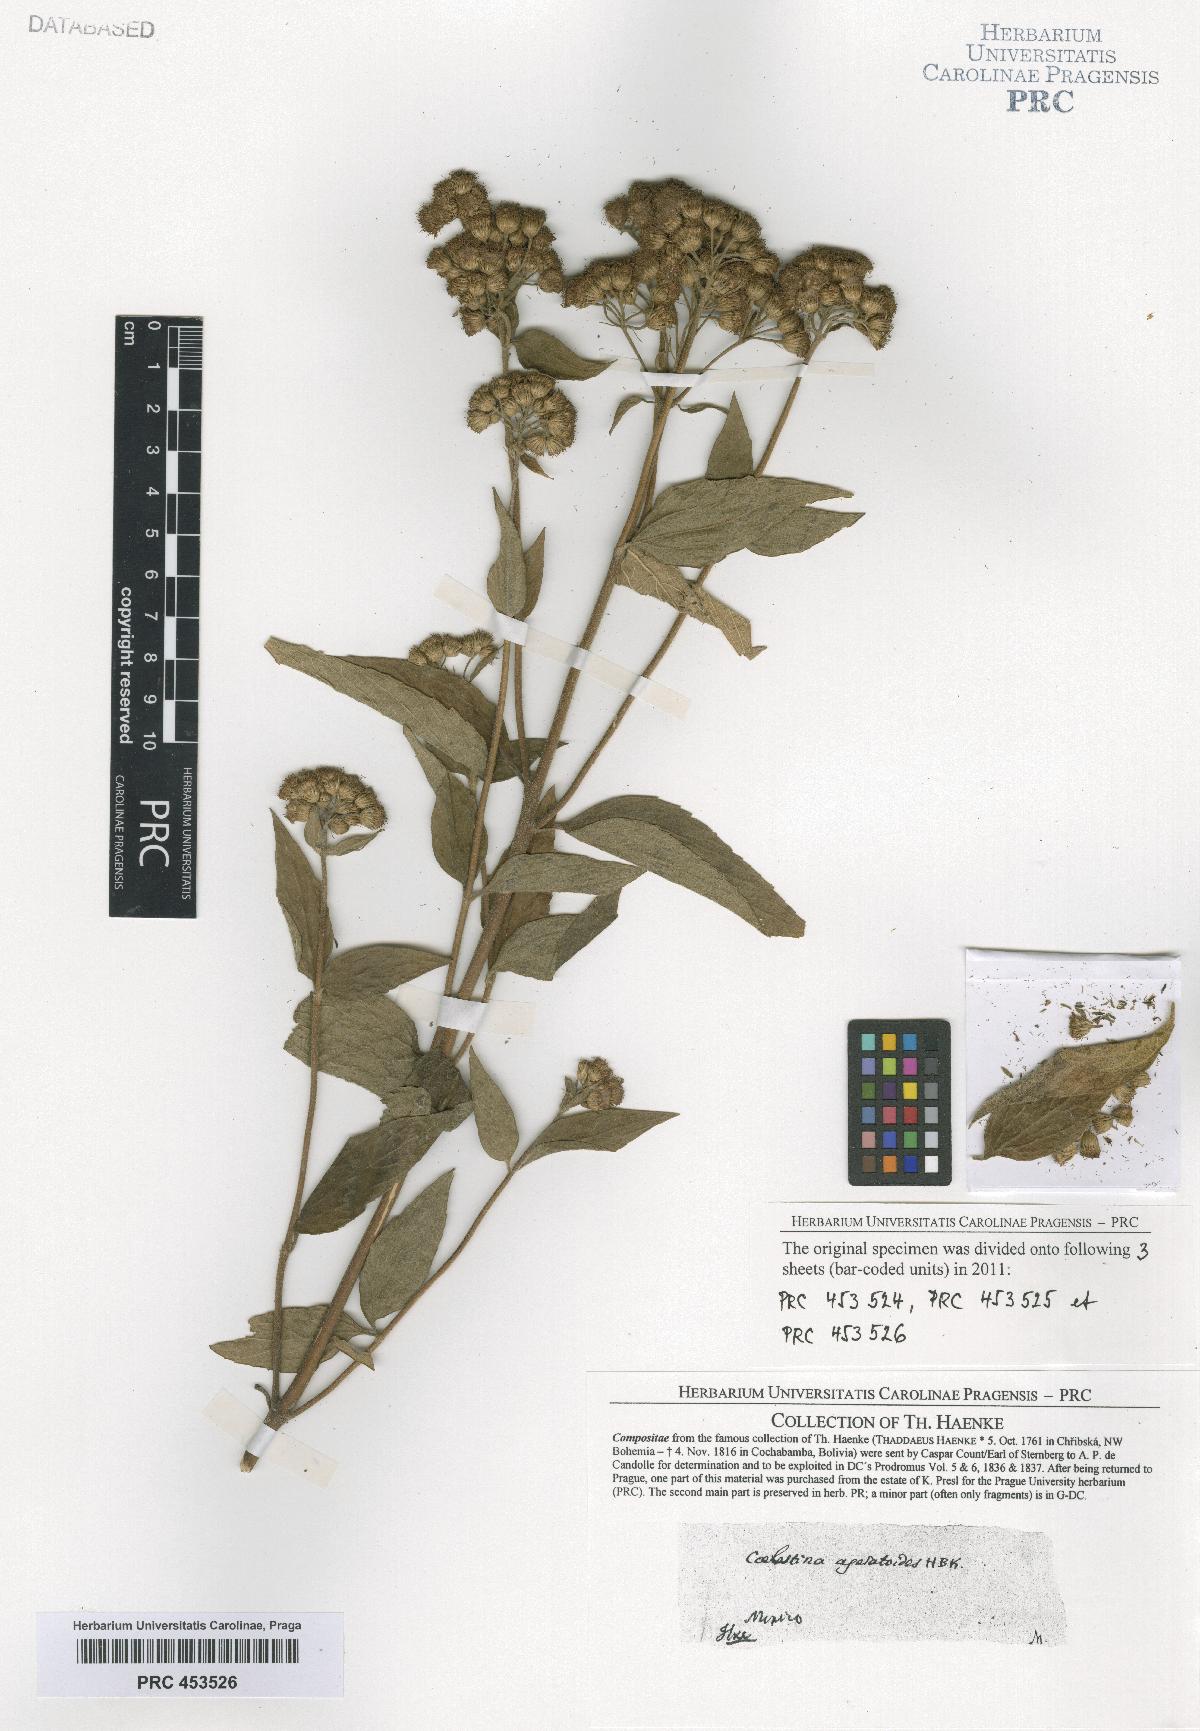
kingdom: Plantae
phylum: Tracheophyta
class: Magnoliopsida
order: Asterales
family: Asteraceae
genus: Ageratum
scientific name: Ageratum corymbosum
